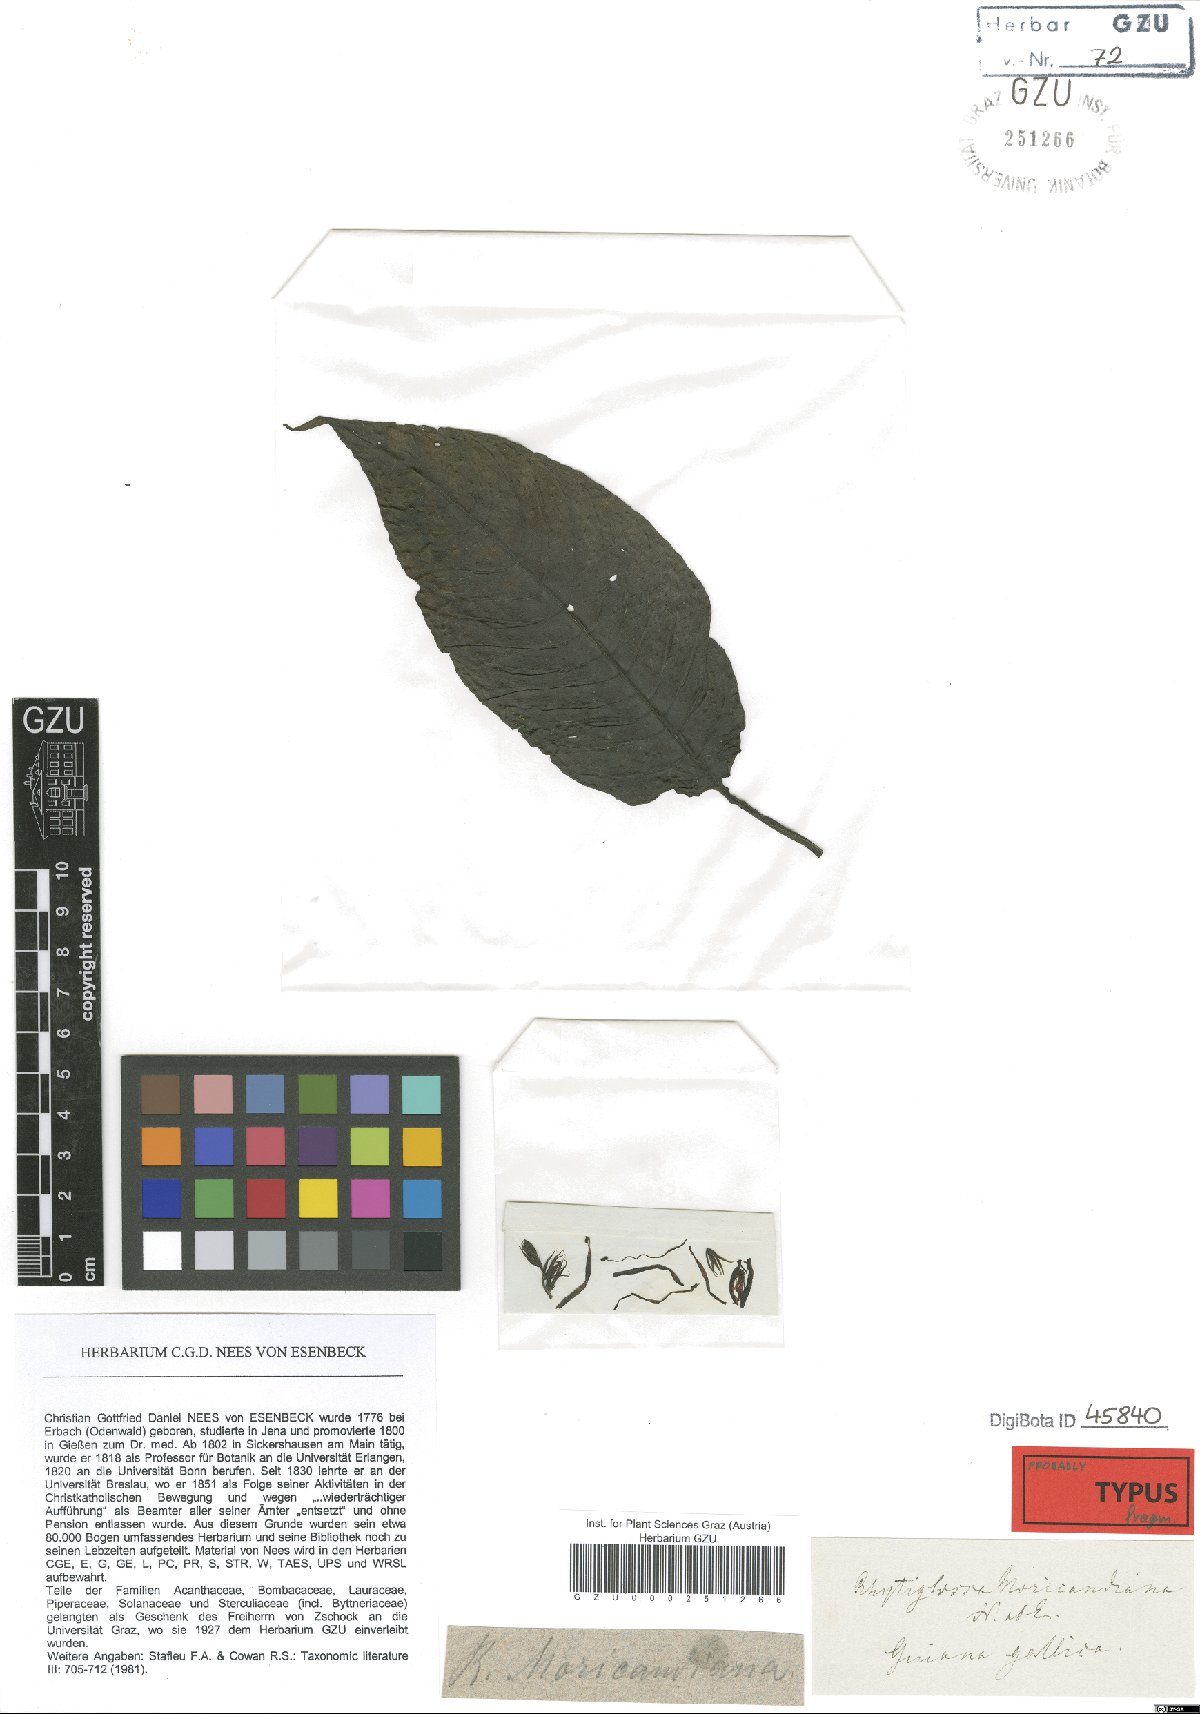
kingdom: Plantae
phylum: Tracheophyta
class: Magnoliopsida
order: Lamiales
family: Acanthaceae
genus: Dianthera
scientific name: Dianthera secunda
